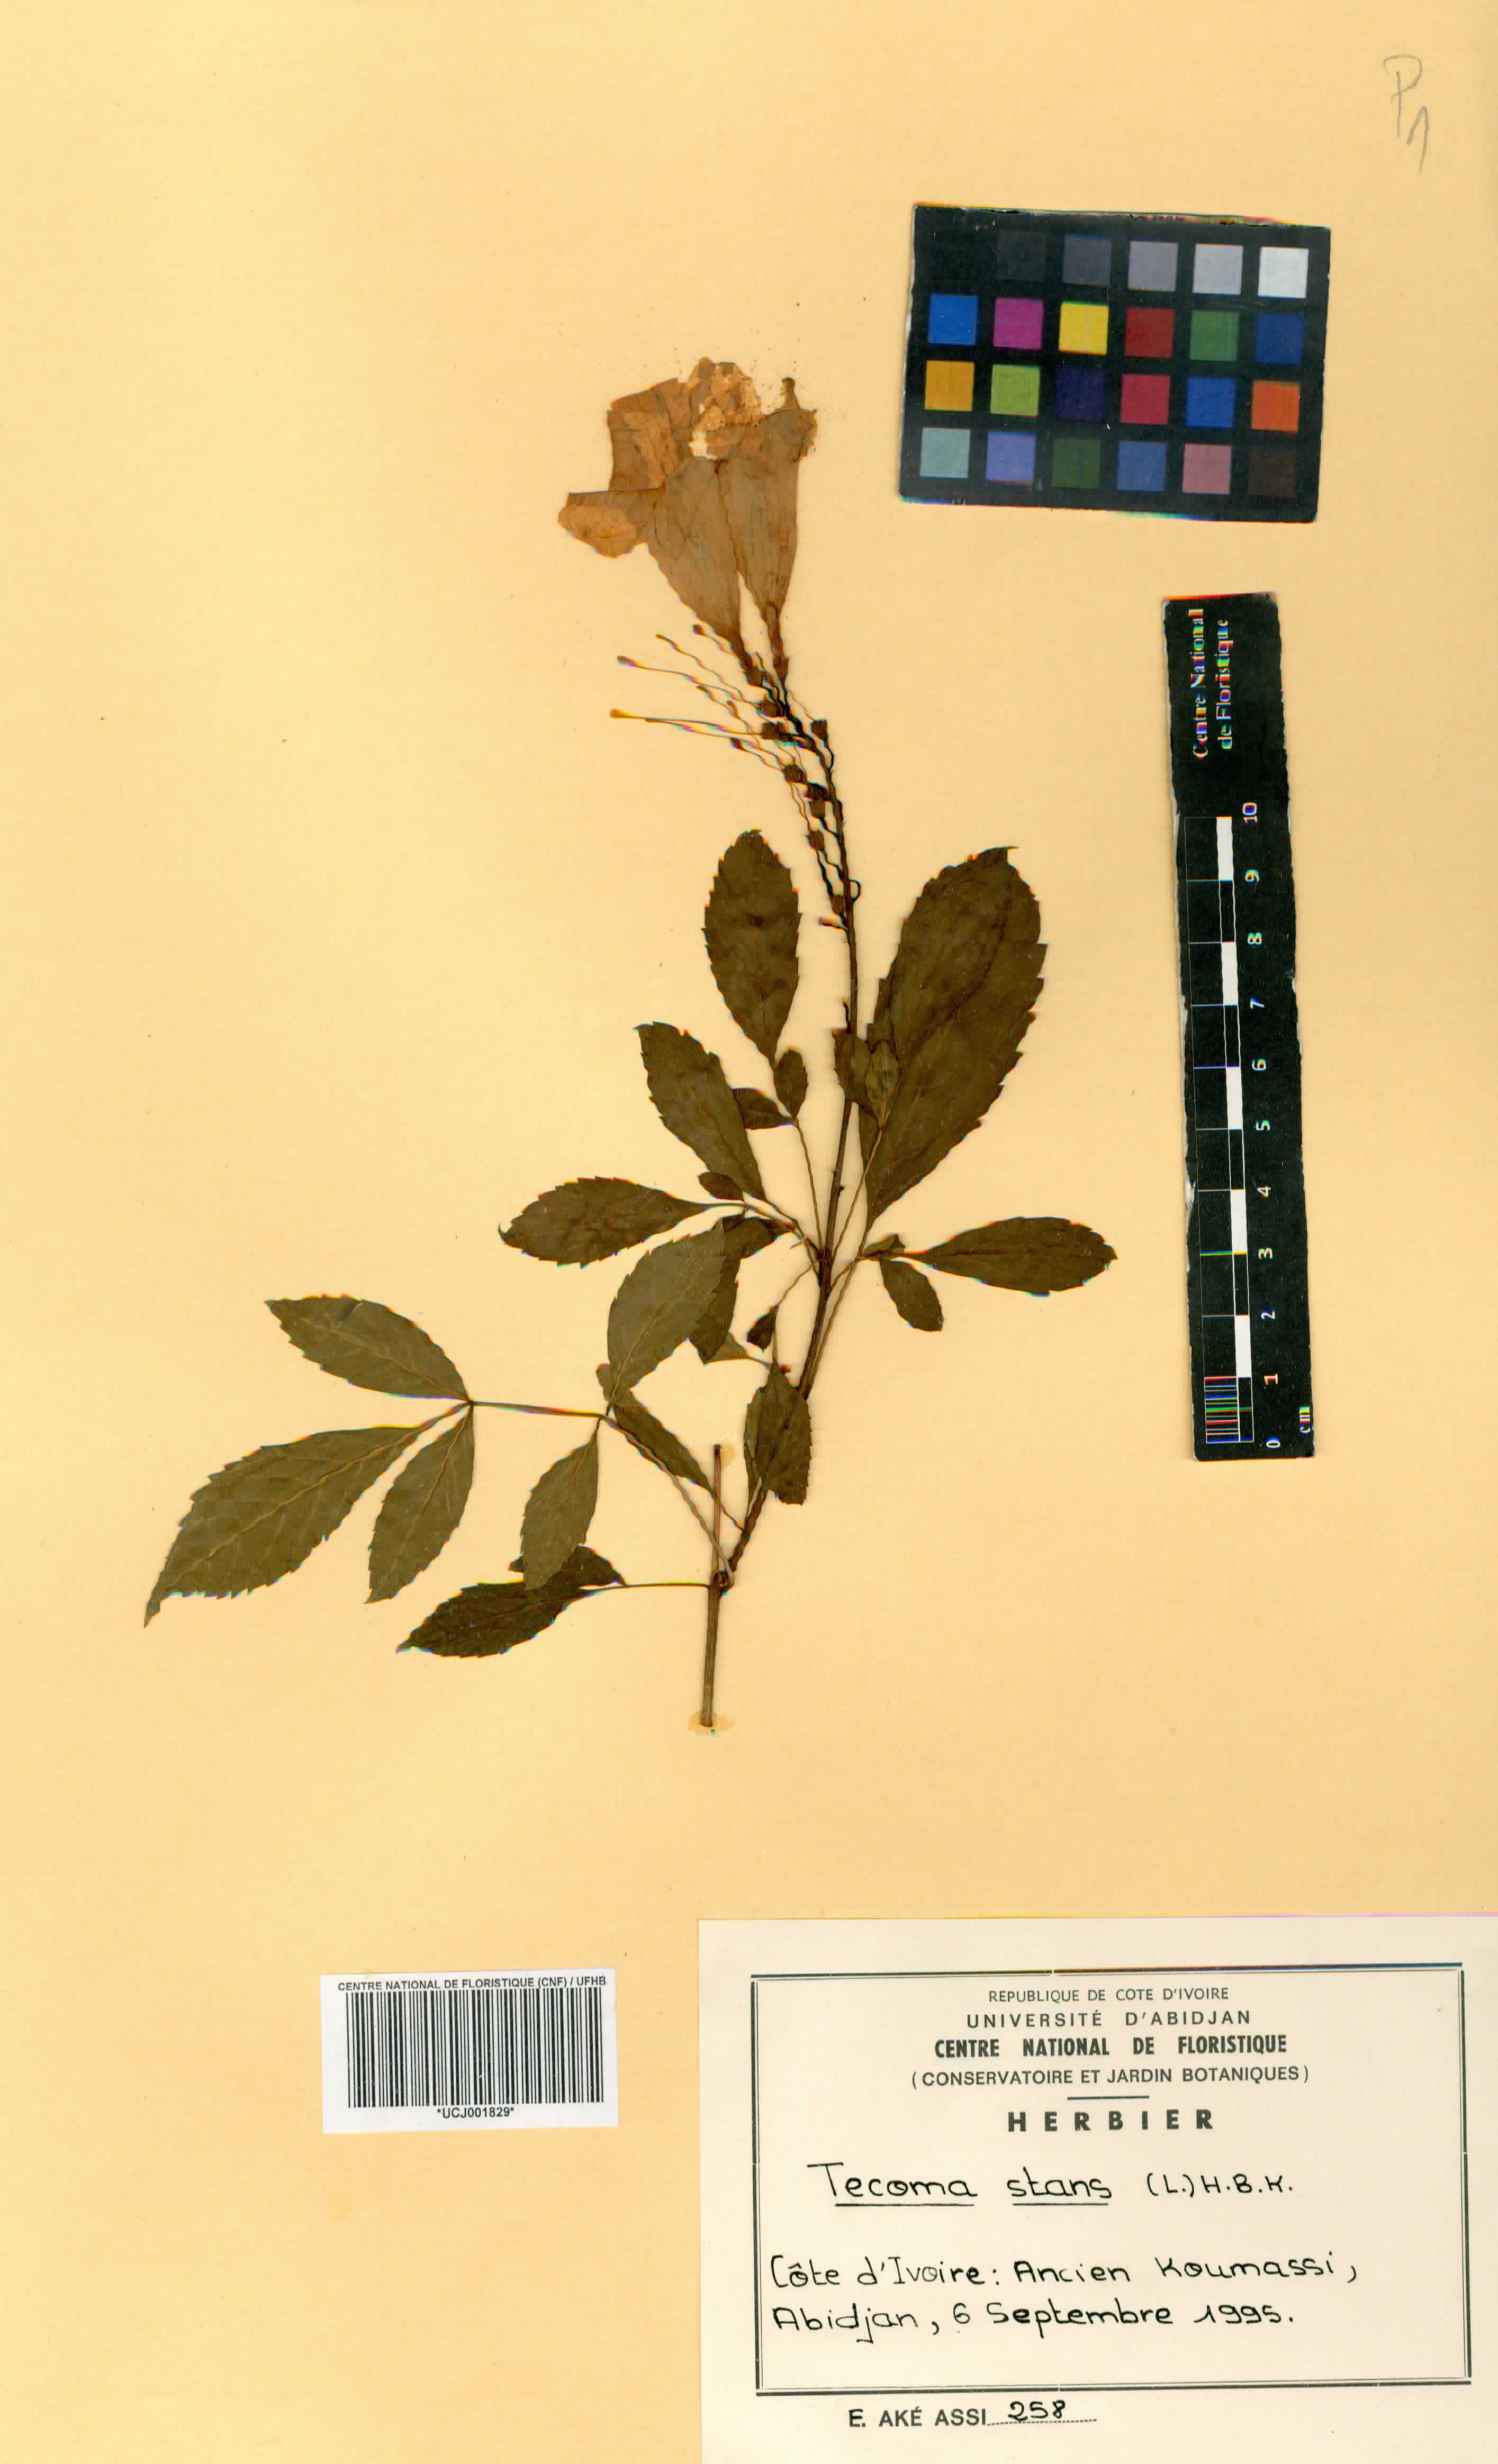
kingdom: Plantae
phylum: Tracheophyta
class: Magnoliopsida
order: Lamiales
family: Bignoniaceae
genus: Tecoma
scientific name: Tecoma stans
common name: Yellow trumpetbush
